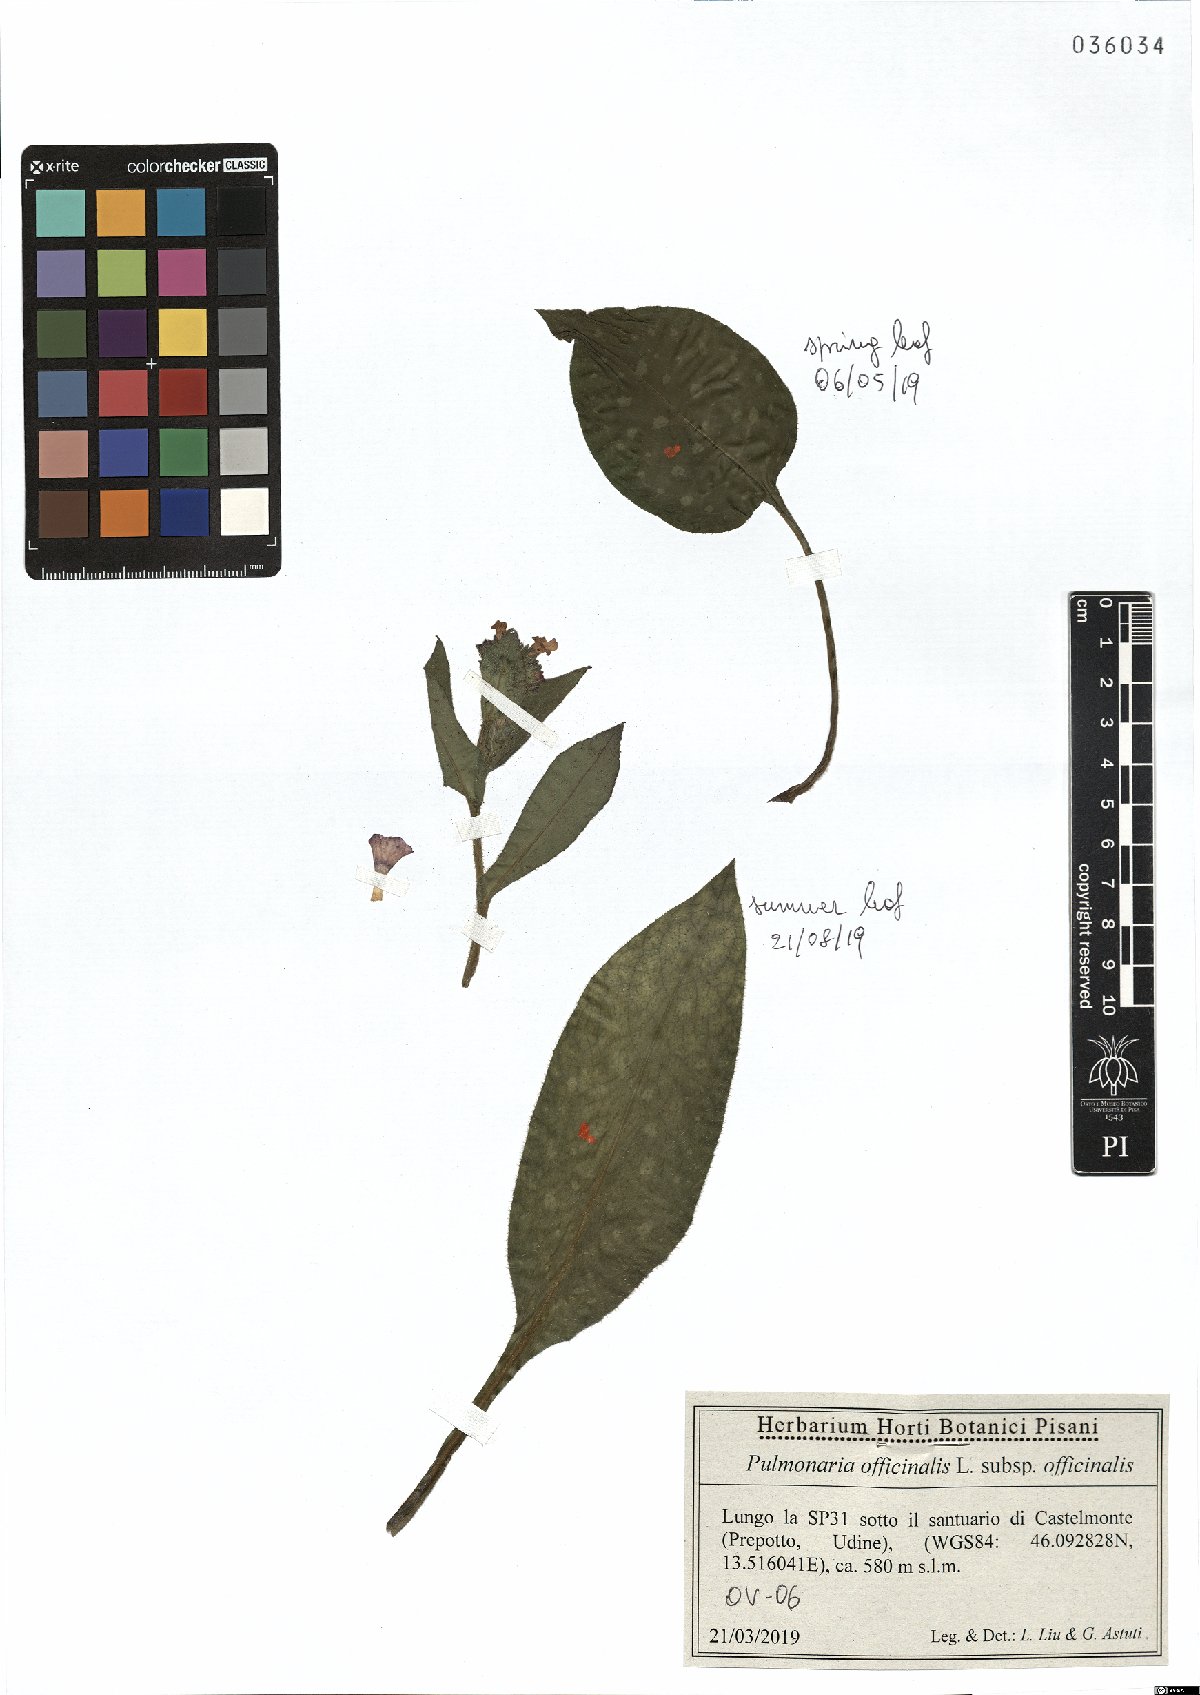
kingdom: Plantae
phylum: Tracheophyta
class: Magnoliopsida
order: Boraginales
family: Boraginaceae
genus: Pulmonaria
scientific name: Pulmonaria officinalis
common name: Lungwort
